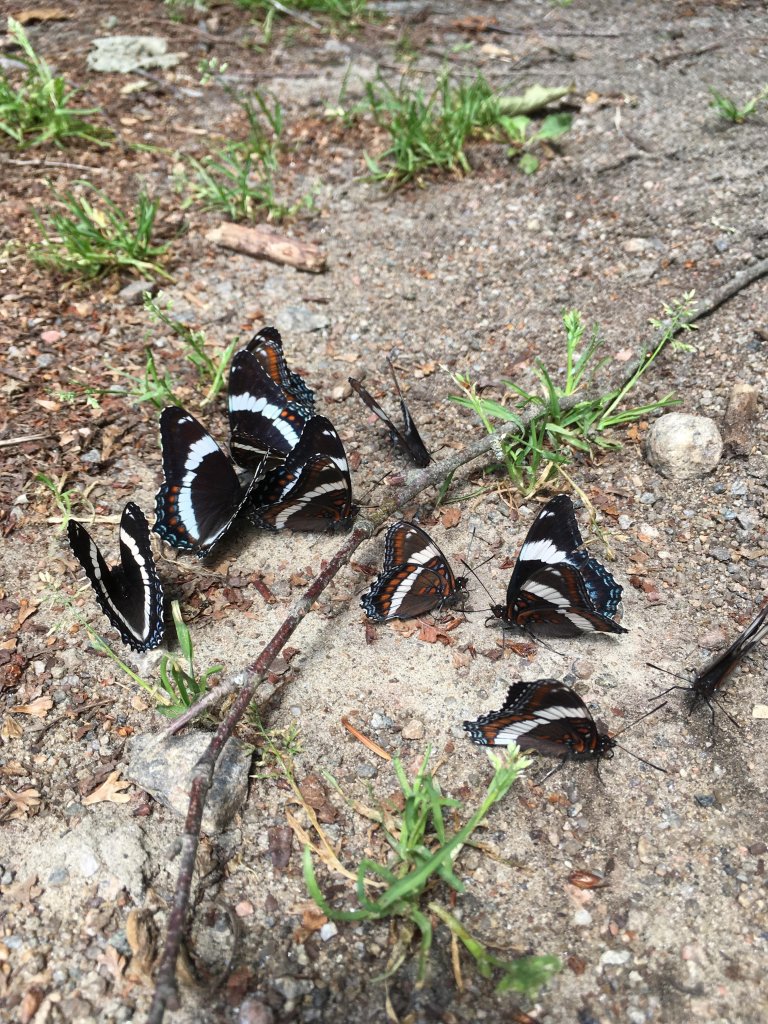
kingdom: Animalia
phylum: Arthropoda
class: Insecta
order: Lepidoptera
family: Nymphalidae
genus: Limenitis
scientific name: Limenitis arthemis
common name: Red-spotted Admiral
